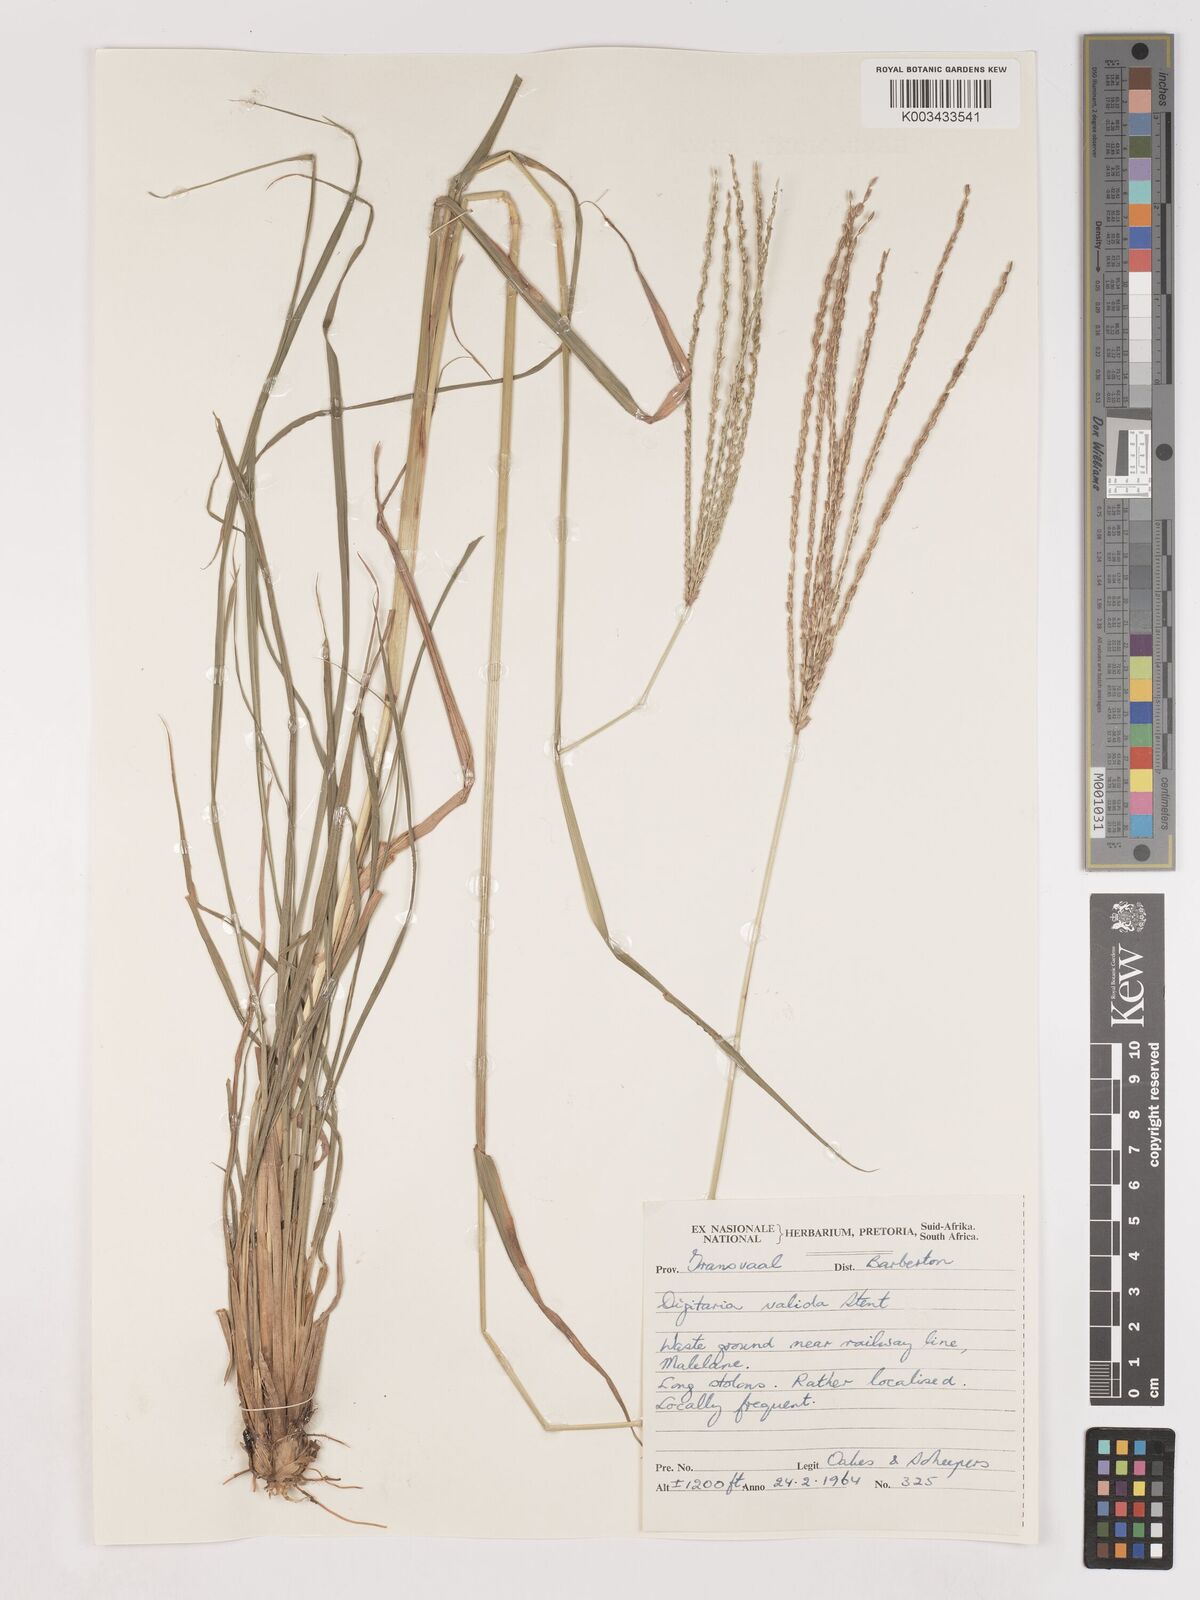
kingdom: Plantae
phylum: Tracheophyta
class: Liliopsida
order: Poales
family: Poaceae
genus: Digitaria
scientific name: Digitaria eriantha
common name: Digitgrass
